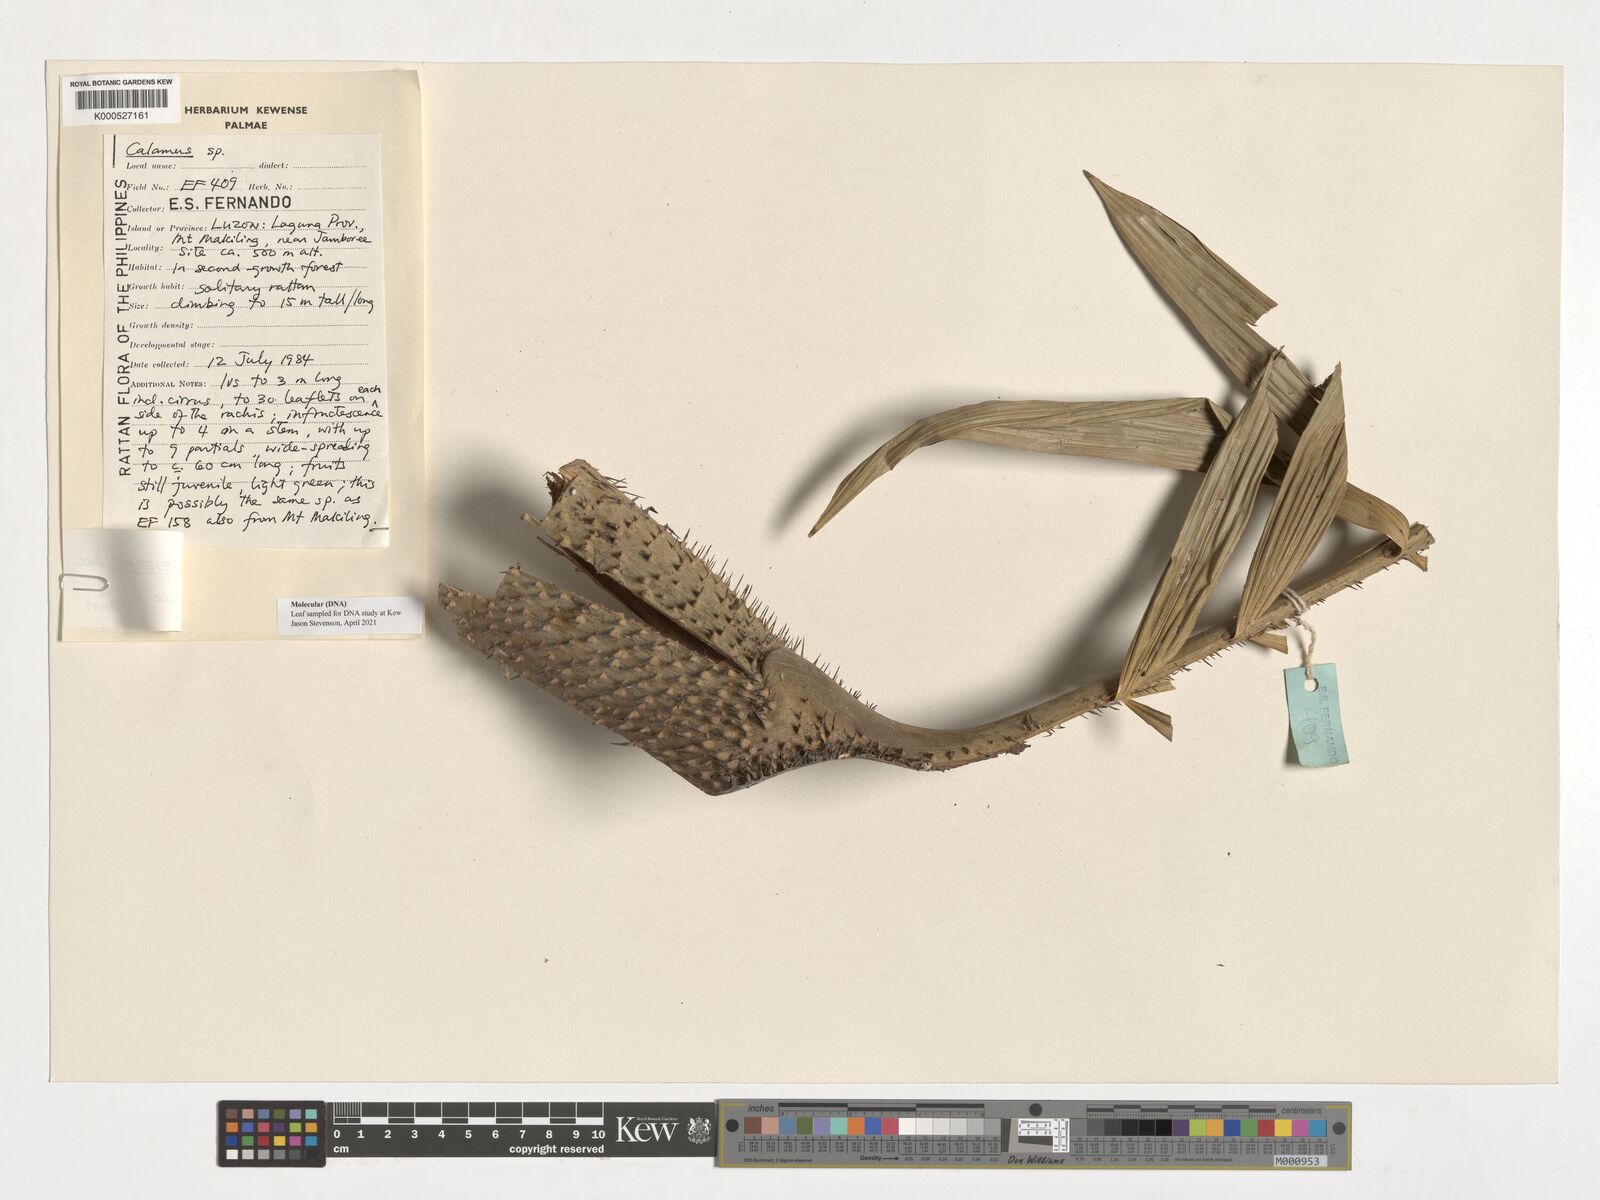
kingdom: Plantae
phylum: Tracheophyta
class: Liliopsida
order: Arecales
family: Arecaceae
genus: Calamus
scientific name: Calamus moseleyanus
